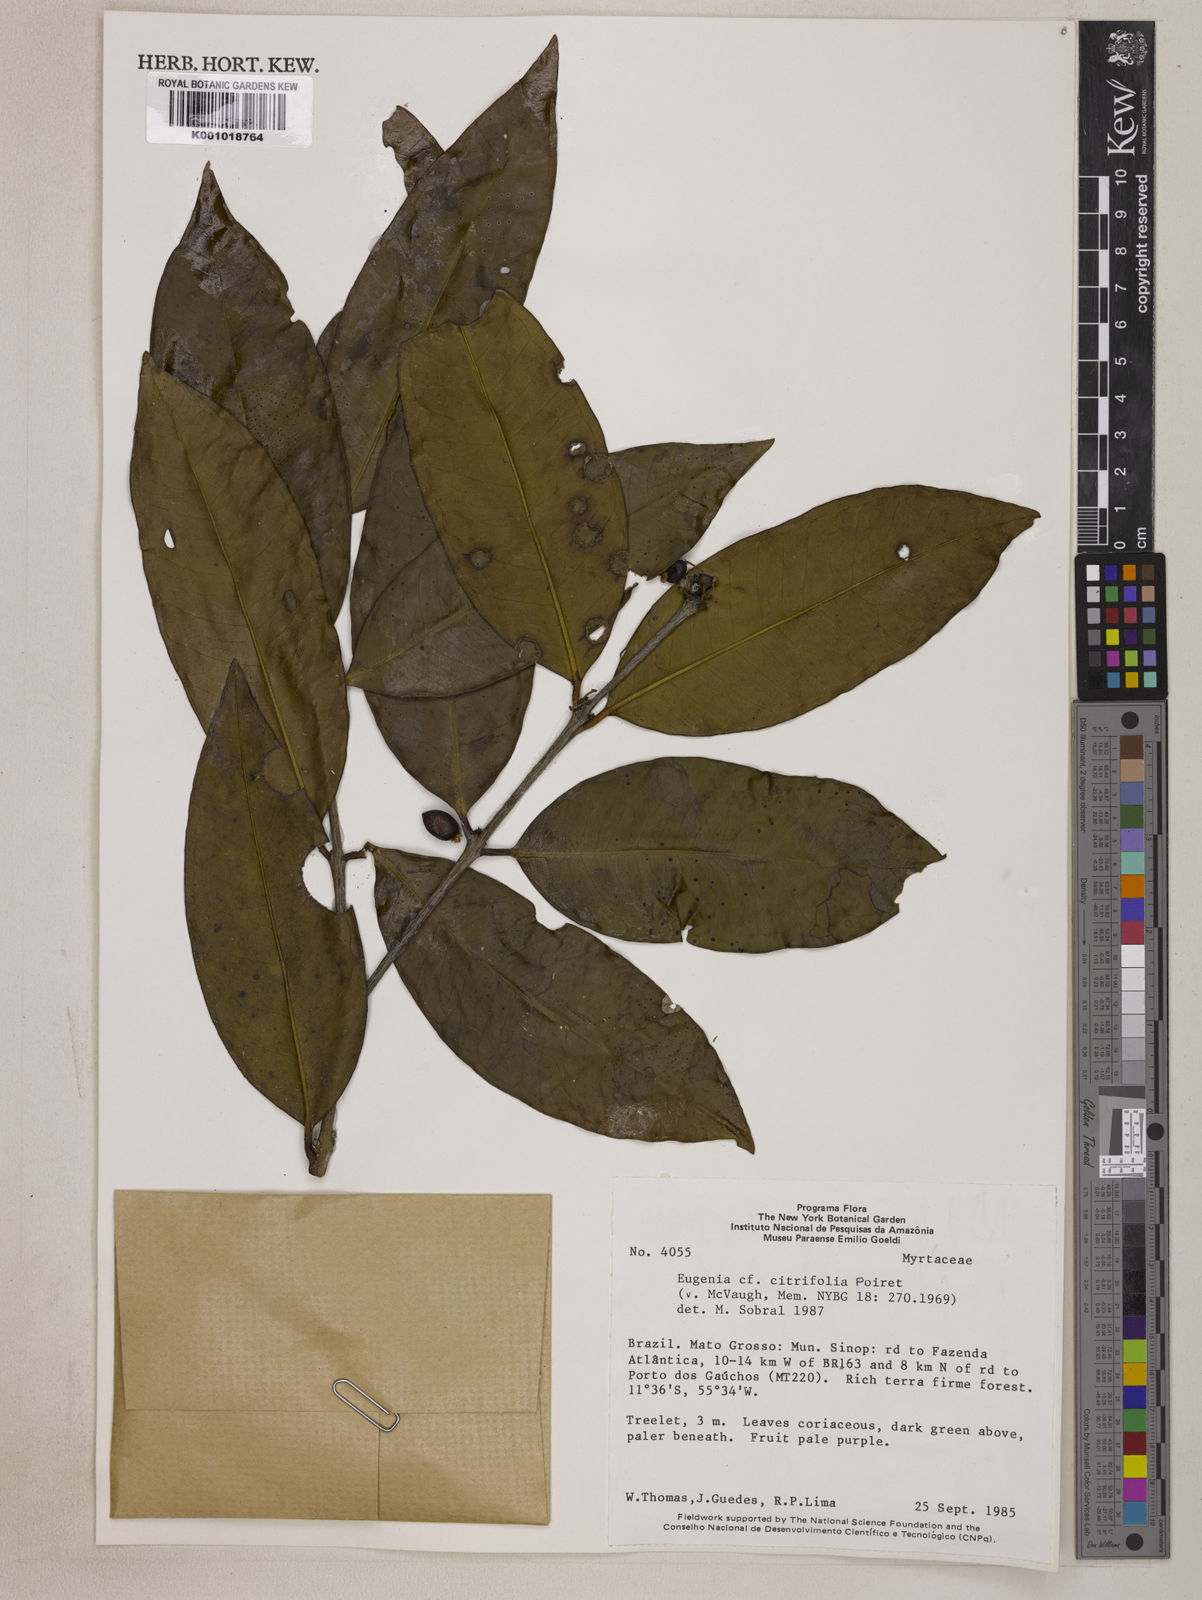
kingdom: Plantae
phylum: Tracheophyta
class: Magnoliopsida
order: Myrtales
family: Myrtaceae
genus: Eugenia
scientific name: Eugenia citrifolia
